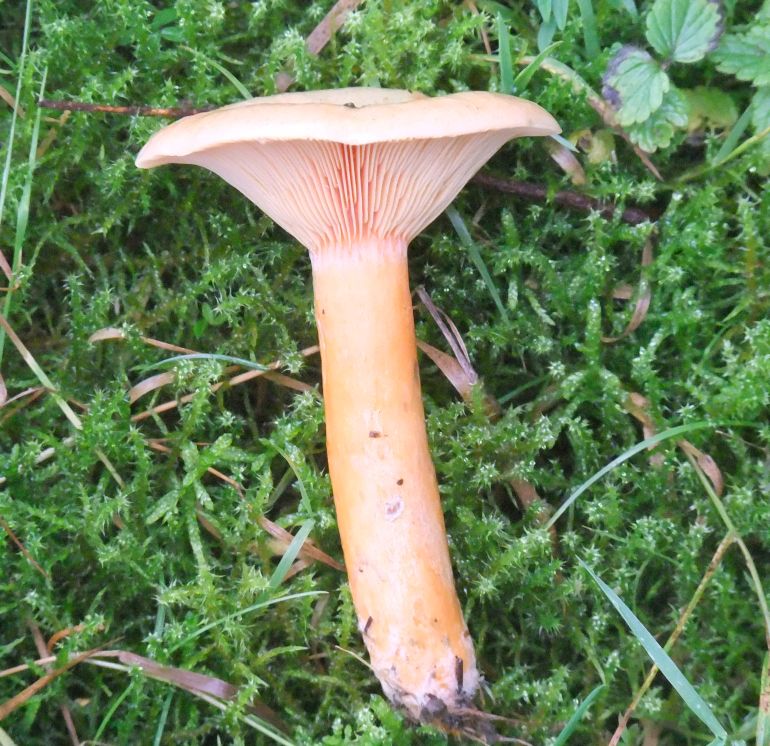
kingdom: Fungi
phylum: Basidiomycota
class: Agaricomycetes
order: Russulales
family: Russulaceae
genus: Lactarius
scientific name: Lactarius deterrimus
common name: gran-mælkehat
